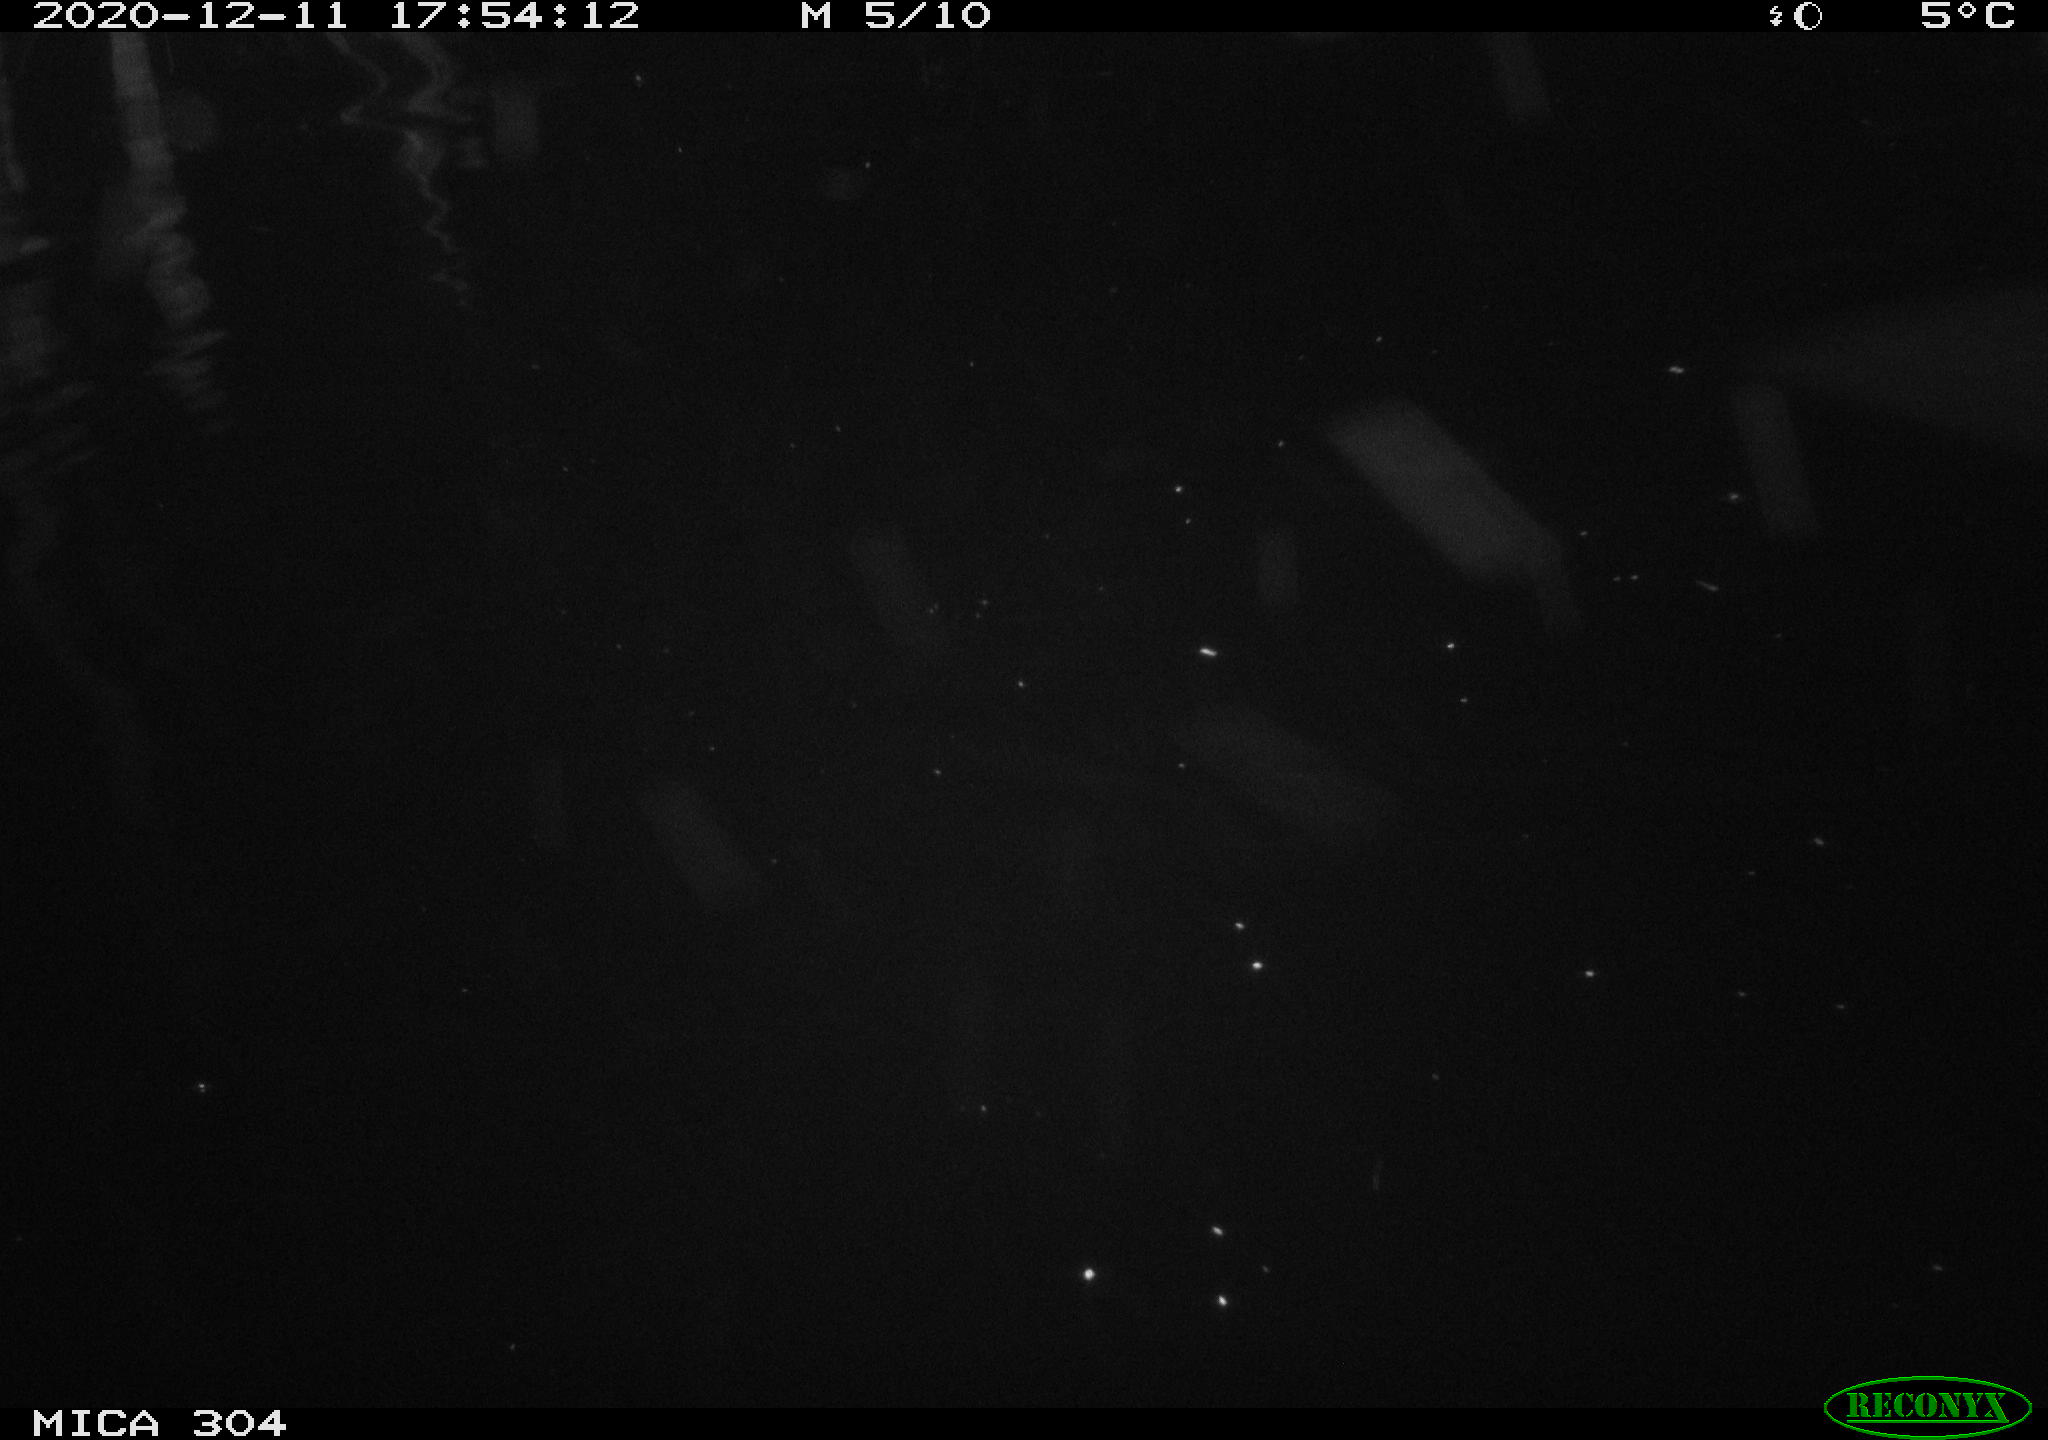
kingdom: Animalia
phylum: Chordata
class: Mammalia
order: Rodentia
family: Muridae
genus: Rattus
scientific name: Rattus norvegicus
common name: Brown rat
